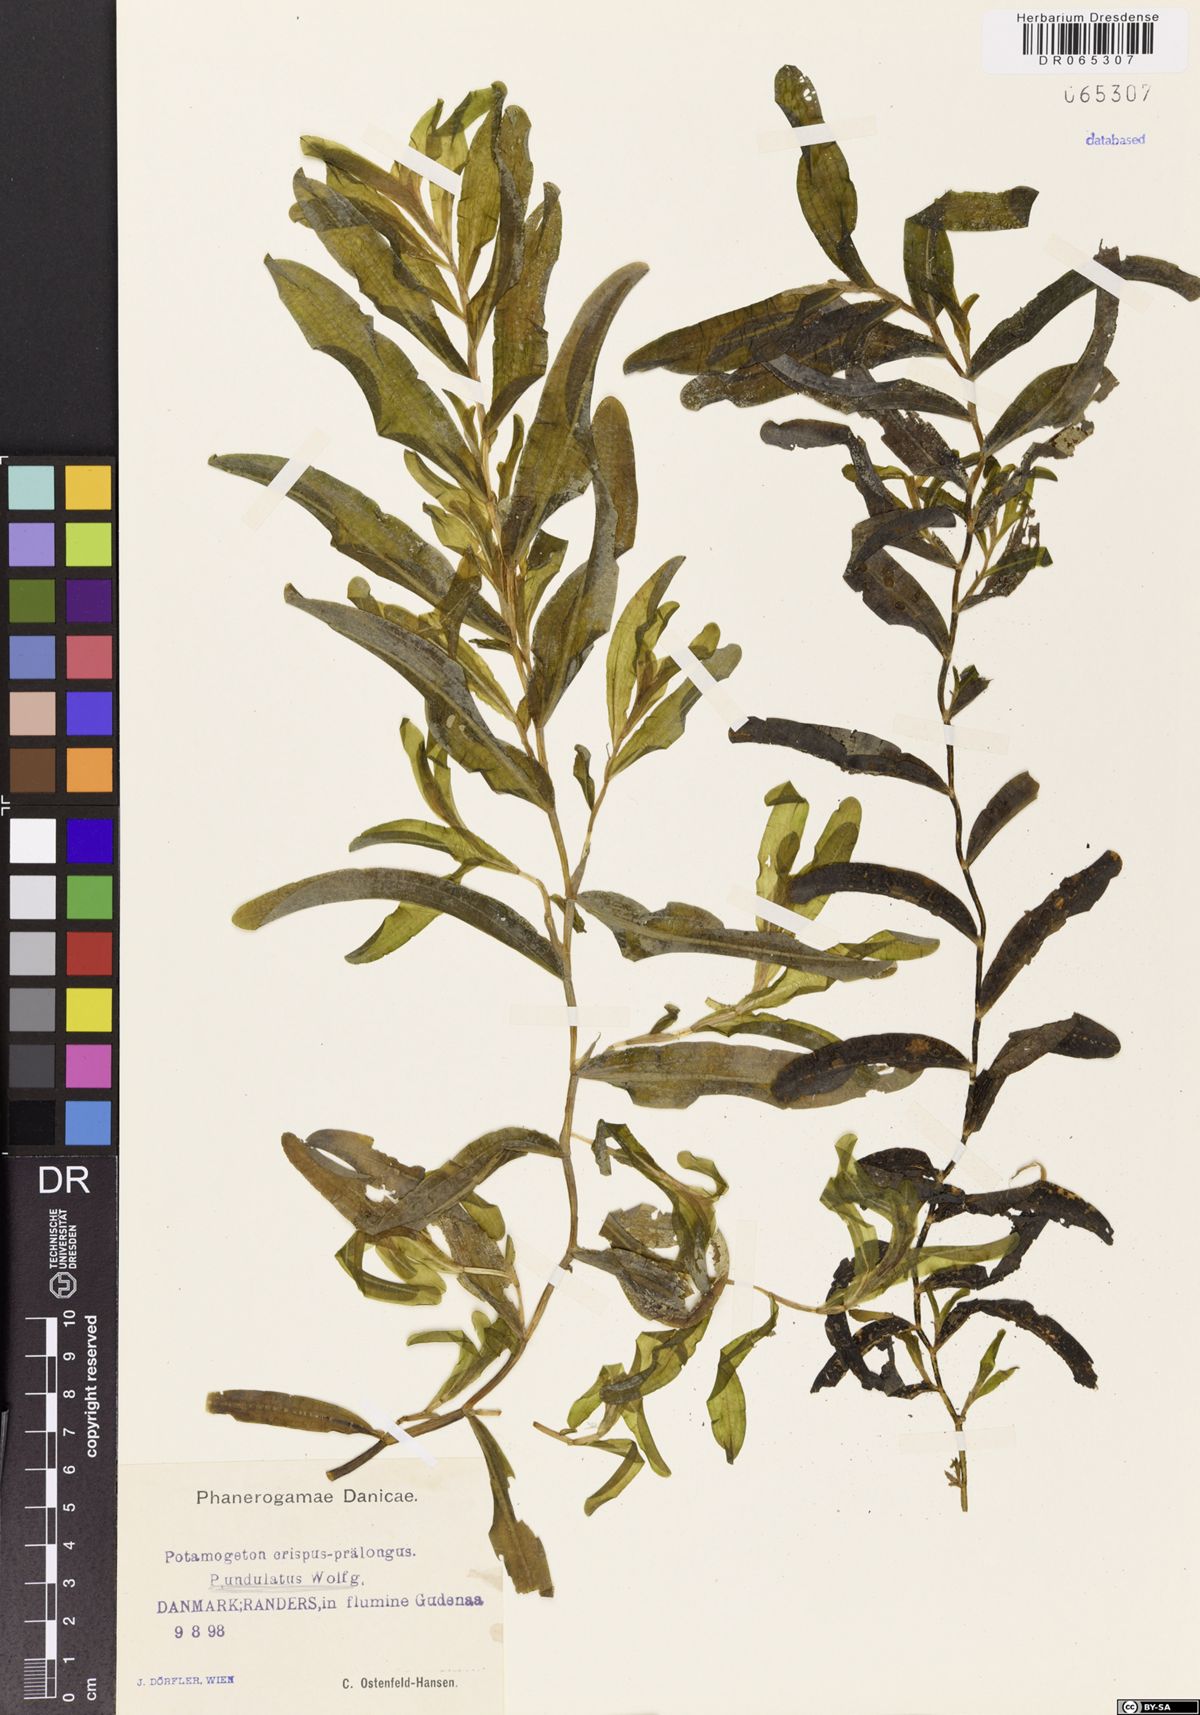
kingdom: Plantae
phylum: Tracheophyta
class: Liliopsida
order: Alismatales
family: Potamogetonaceae
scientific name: Potamogetonaceae
